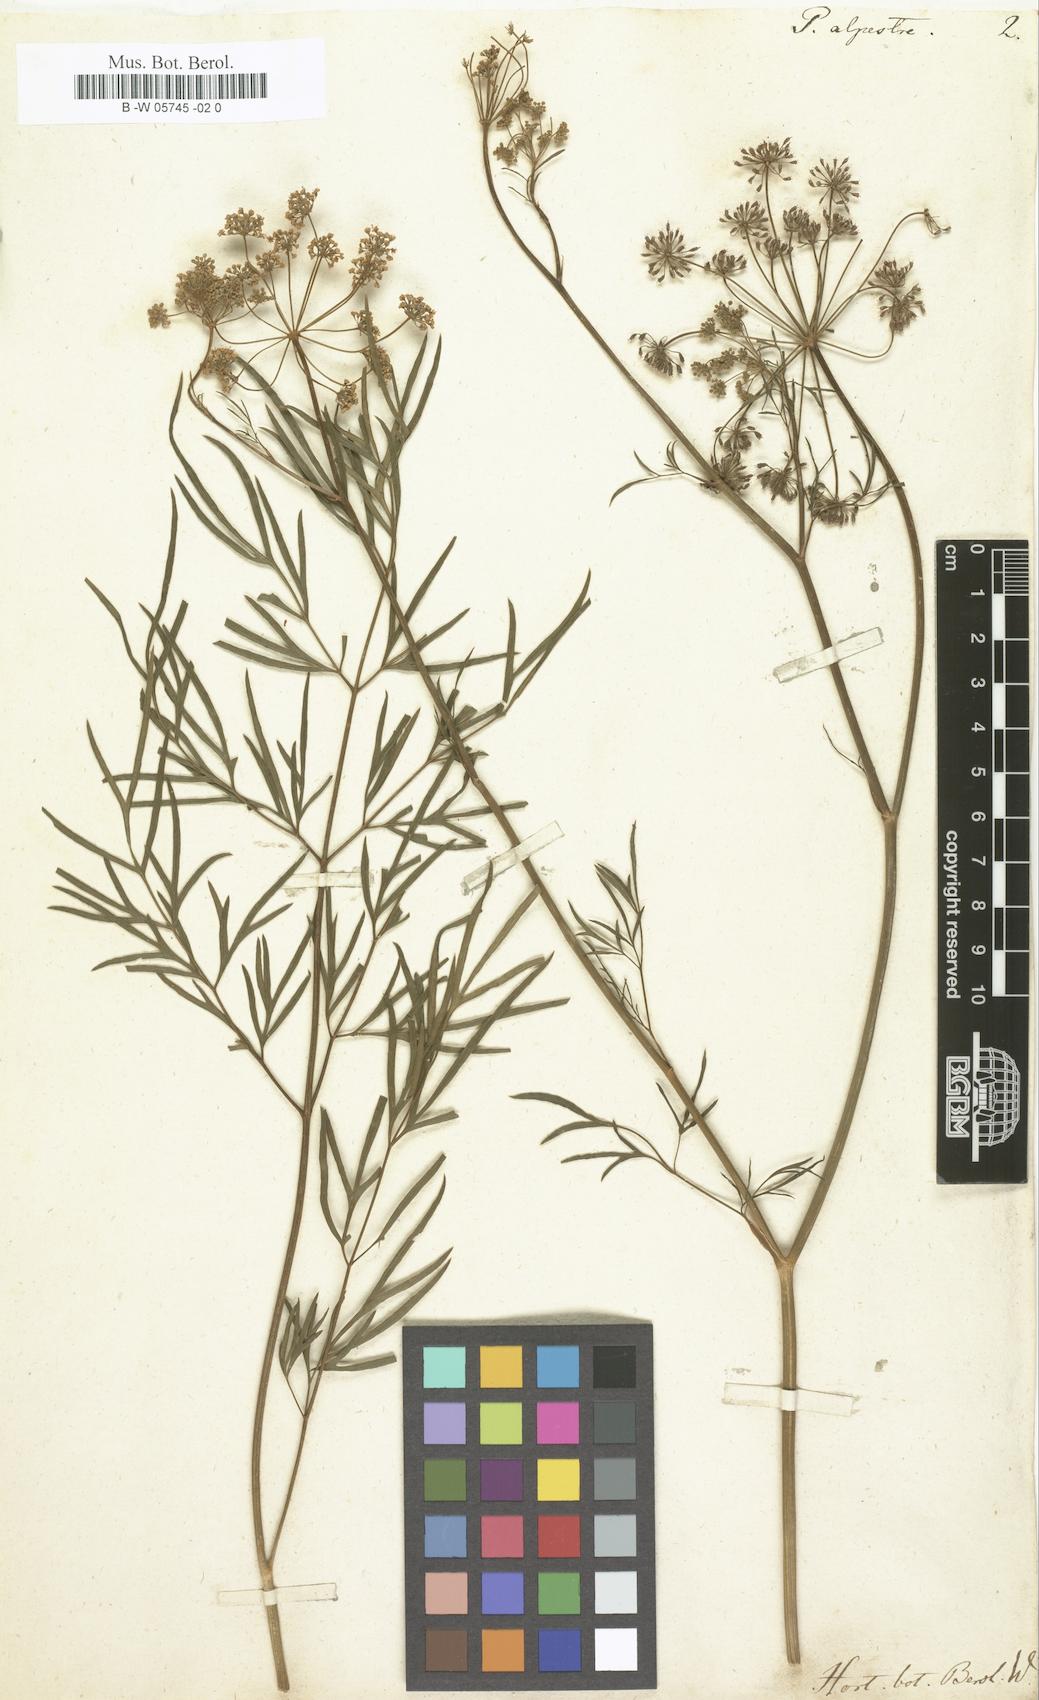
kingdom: Plantae
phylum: Tracheophyta
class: Magnoliopsida
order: Apiales
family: Apiaceae
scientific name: Apiaceae
